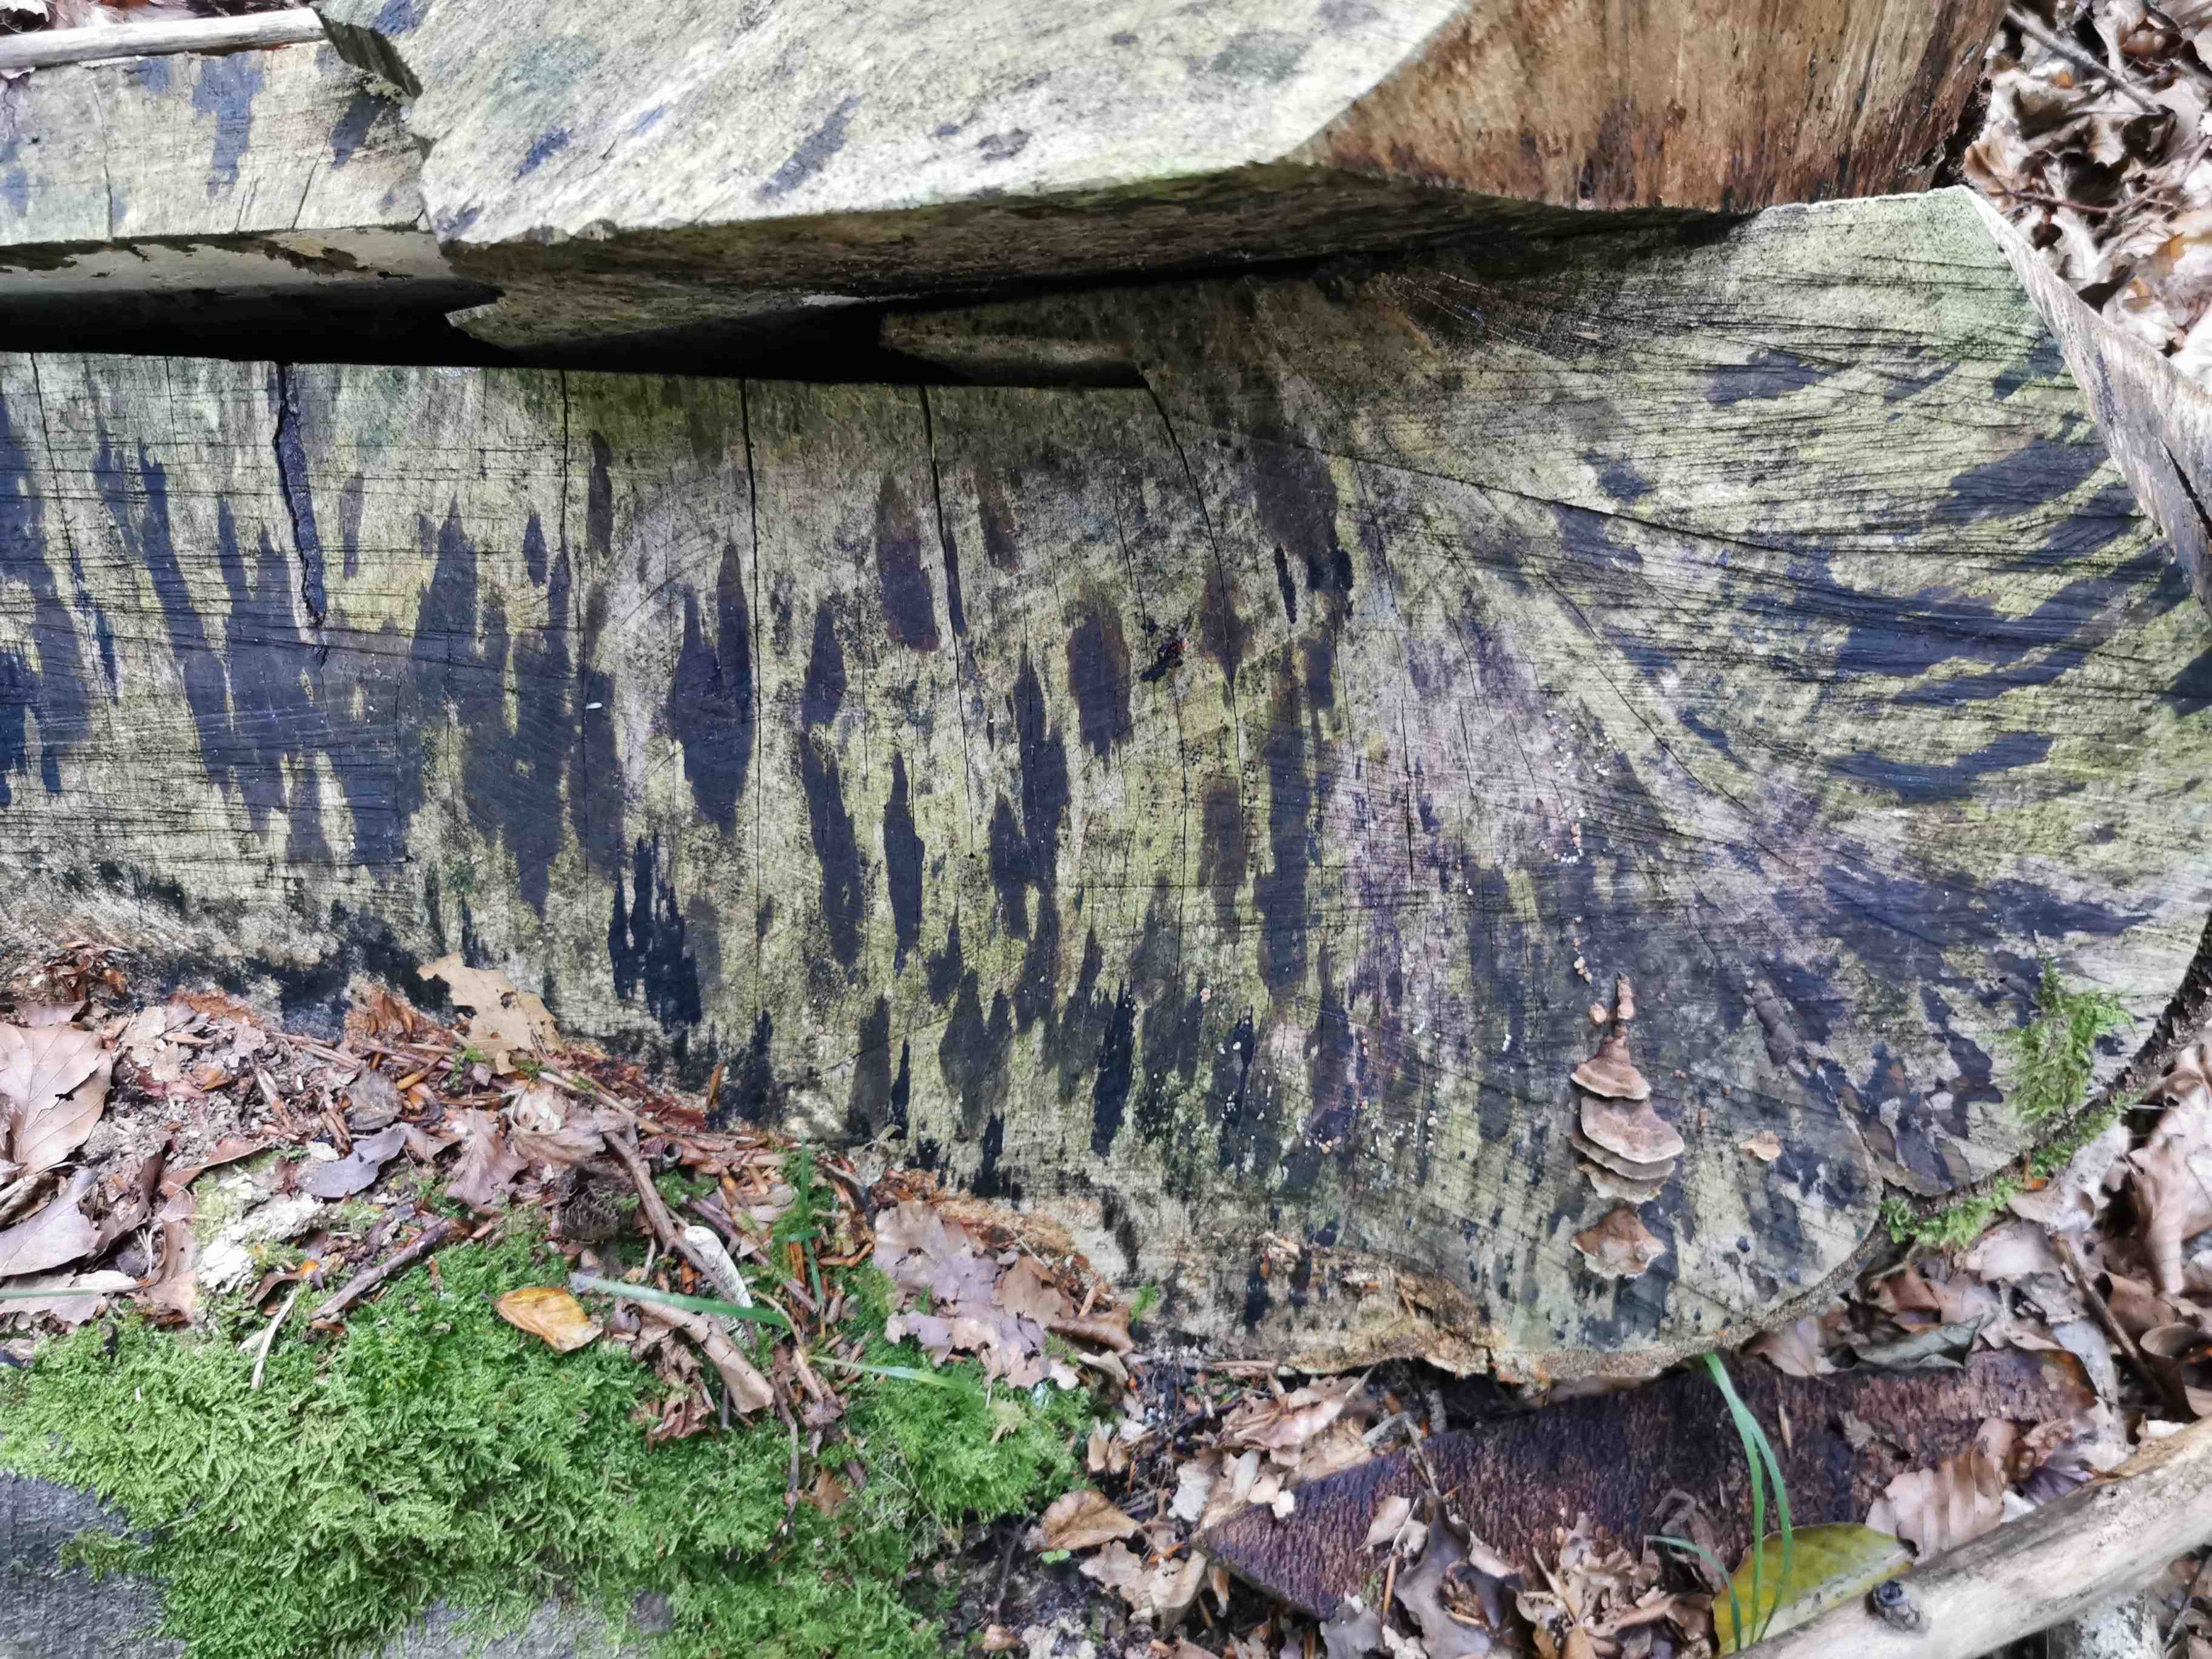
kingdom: Fungi
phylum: Ascomycota
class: Leotiomycetes
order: Helotiales
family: Helotiaceae
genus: Bispora
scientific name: Bispora pallescens
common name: måtte-snitskive
